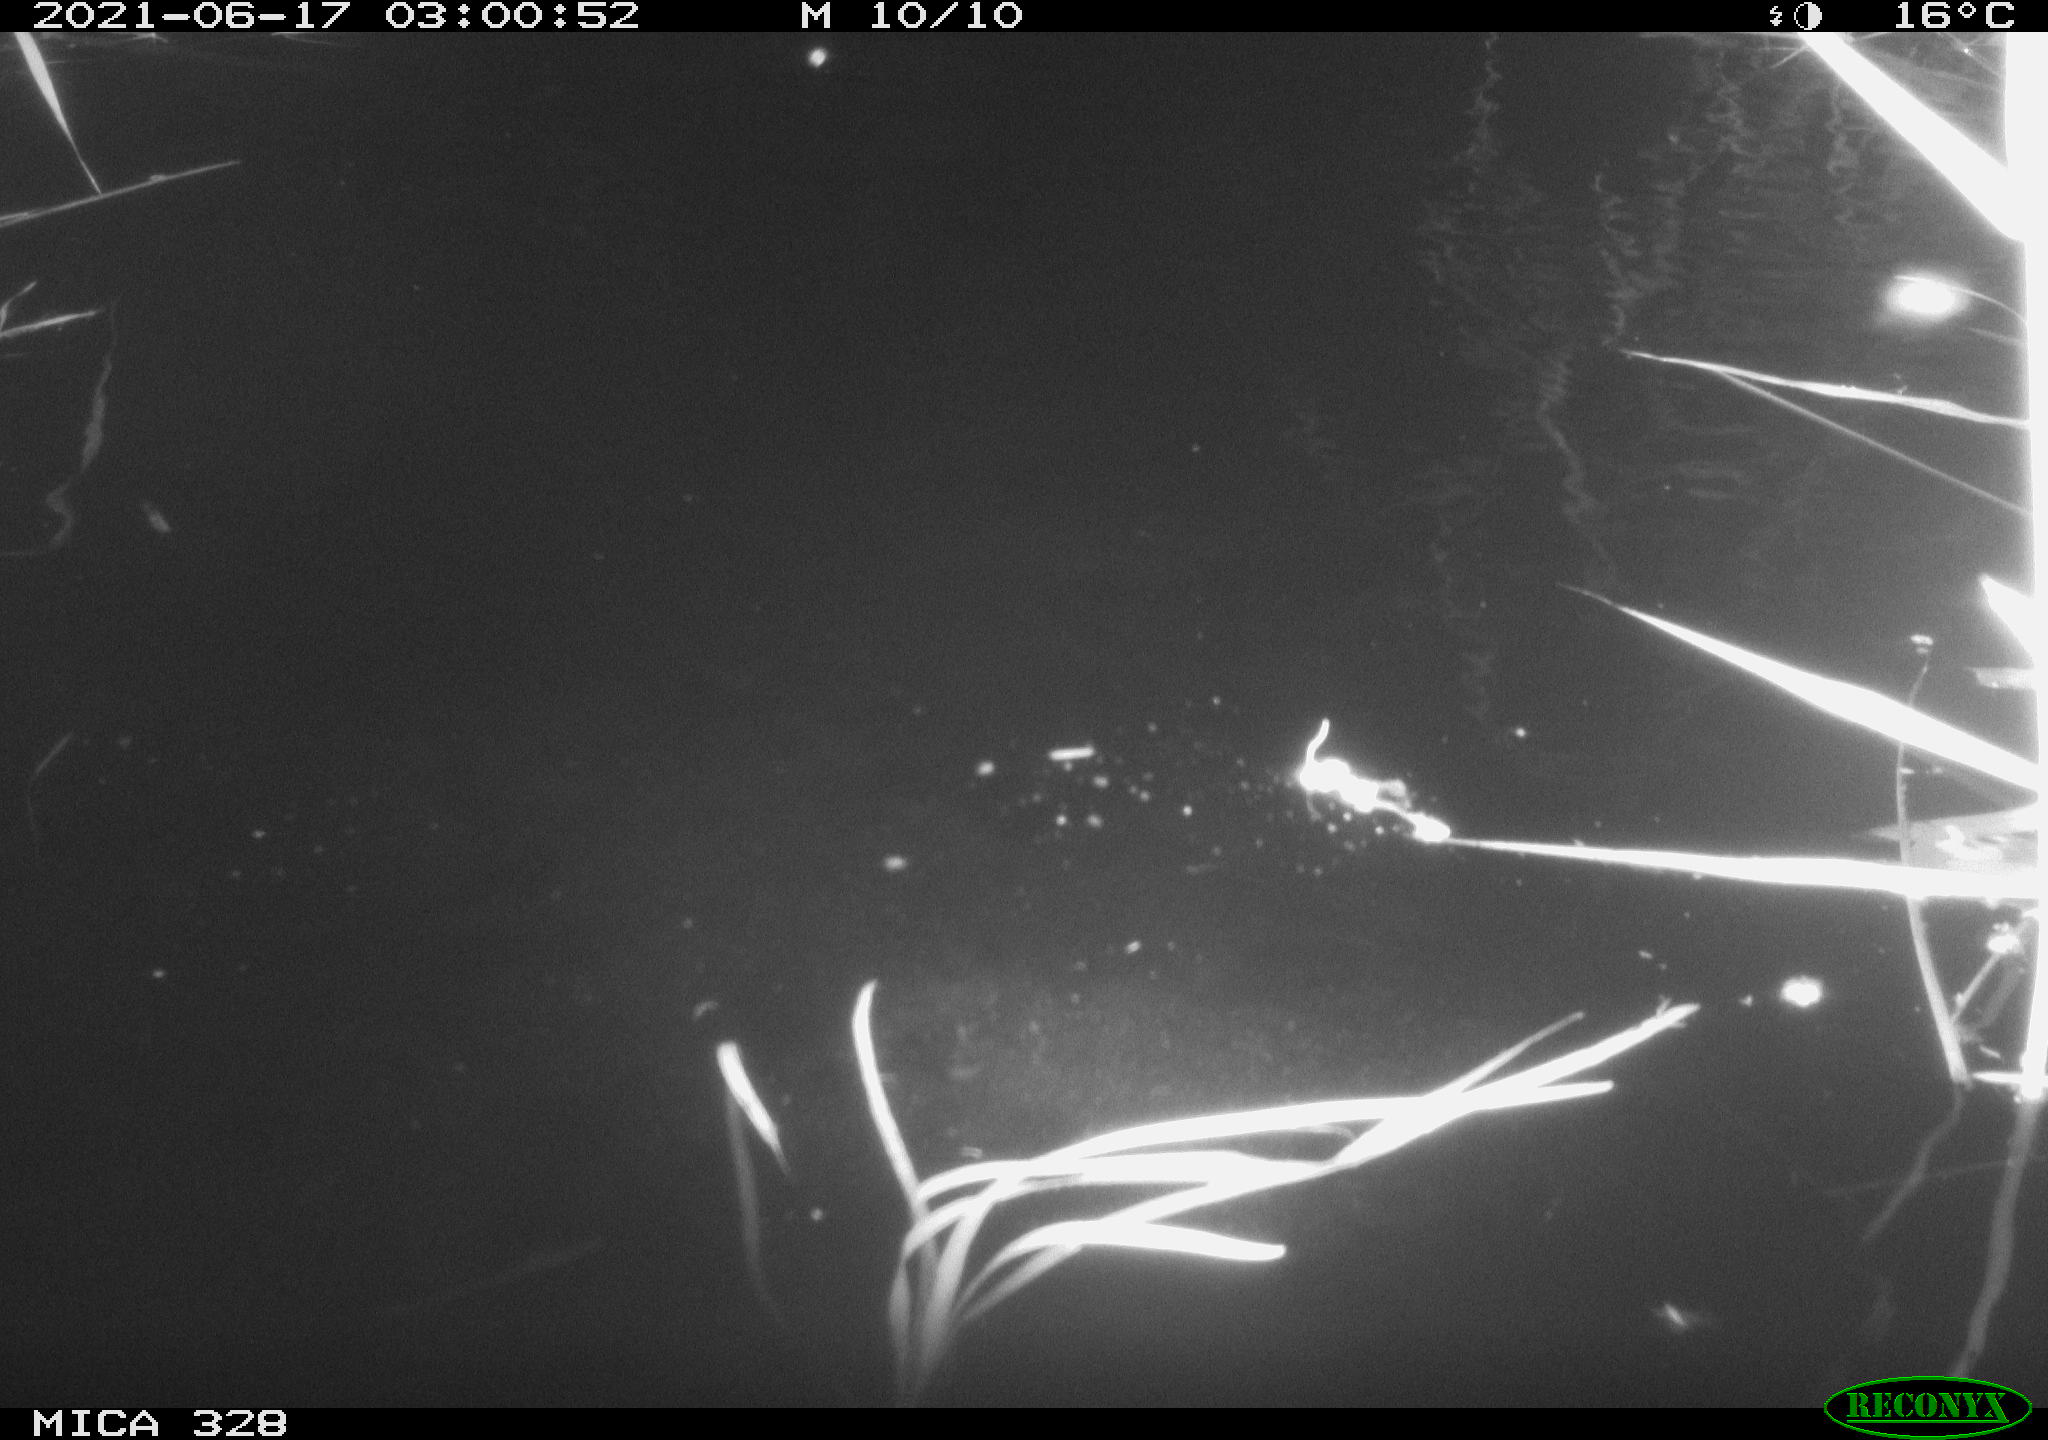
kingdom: Animalia
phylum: Chordata
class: Mammalia
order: Rodentia
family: Cricetidae
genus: Ondatra
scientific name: Ondatra zibethicus
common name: Muskrat
